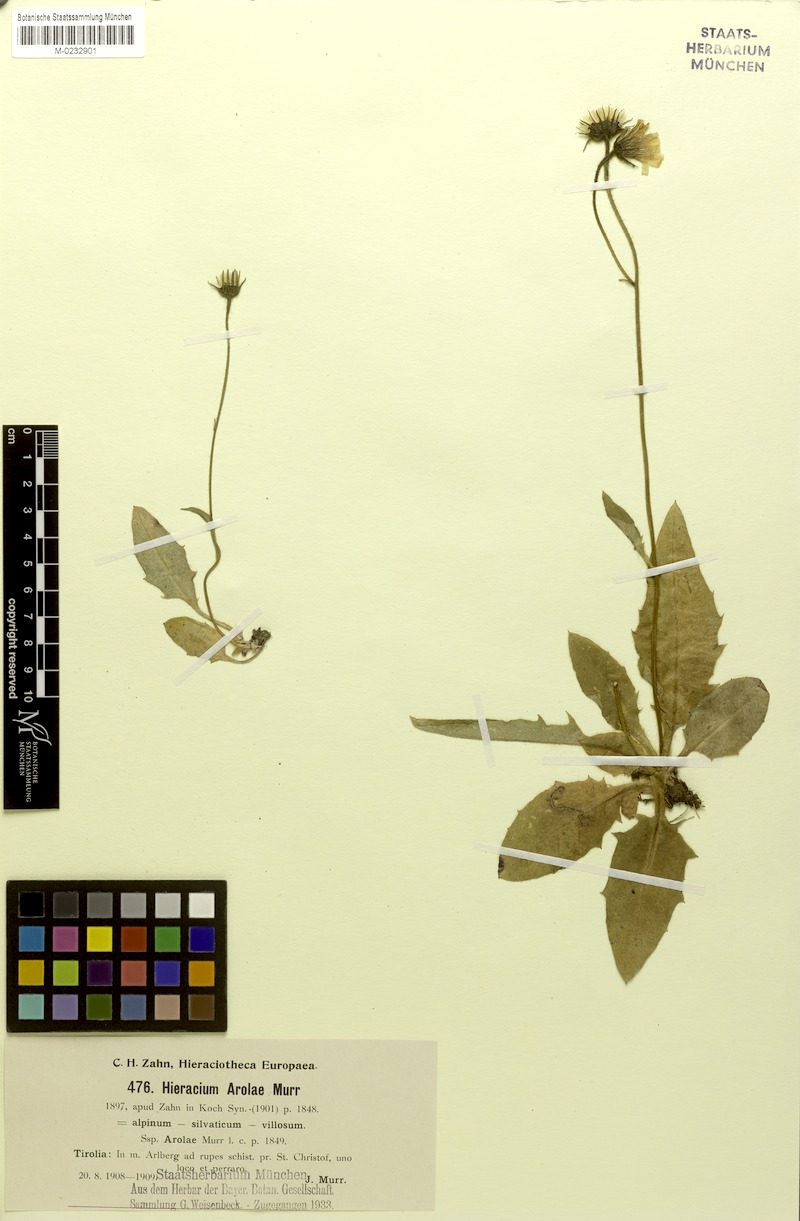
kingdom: Plantae
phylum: Tracheophyta
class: Magnoliopsida
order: Asterales
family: Asteraceae
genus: Hieracium
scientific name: Hieracium arolae
